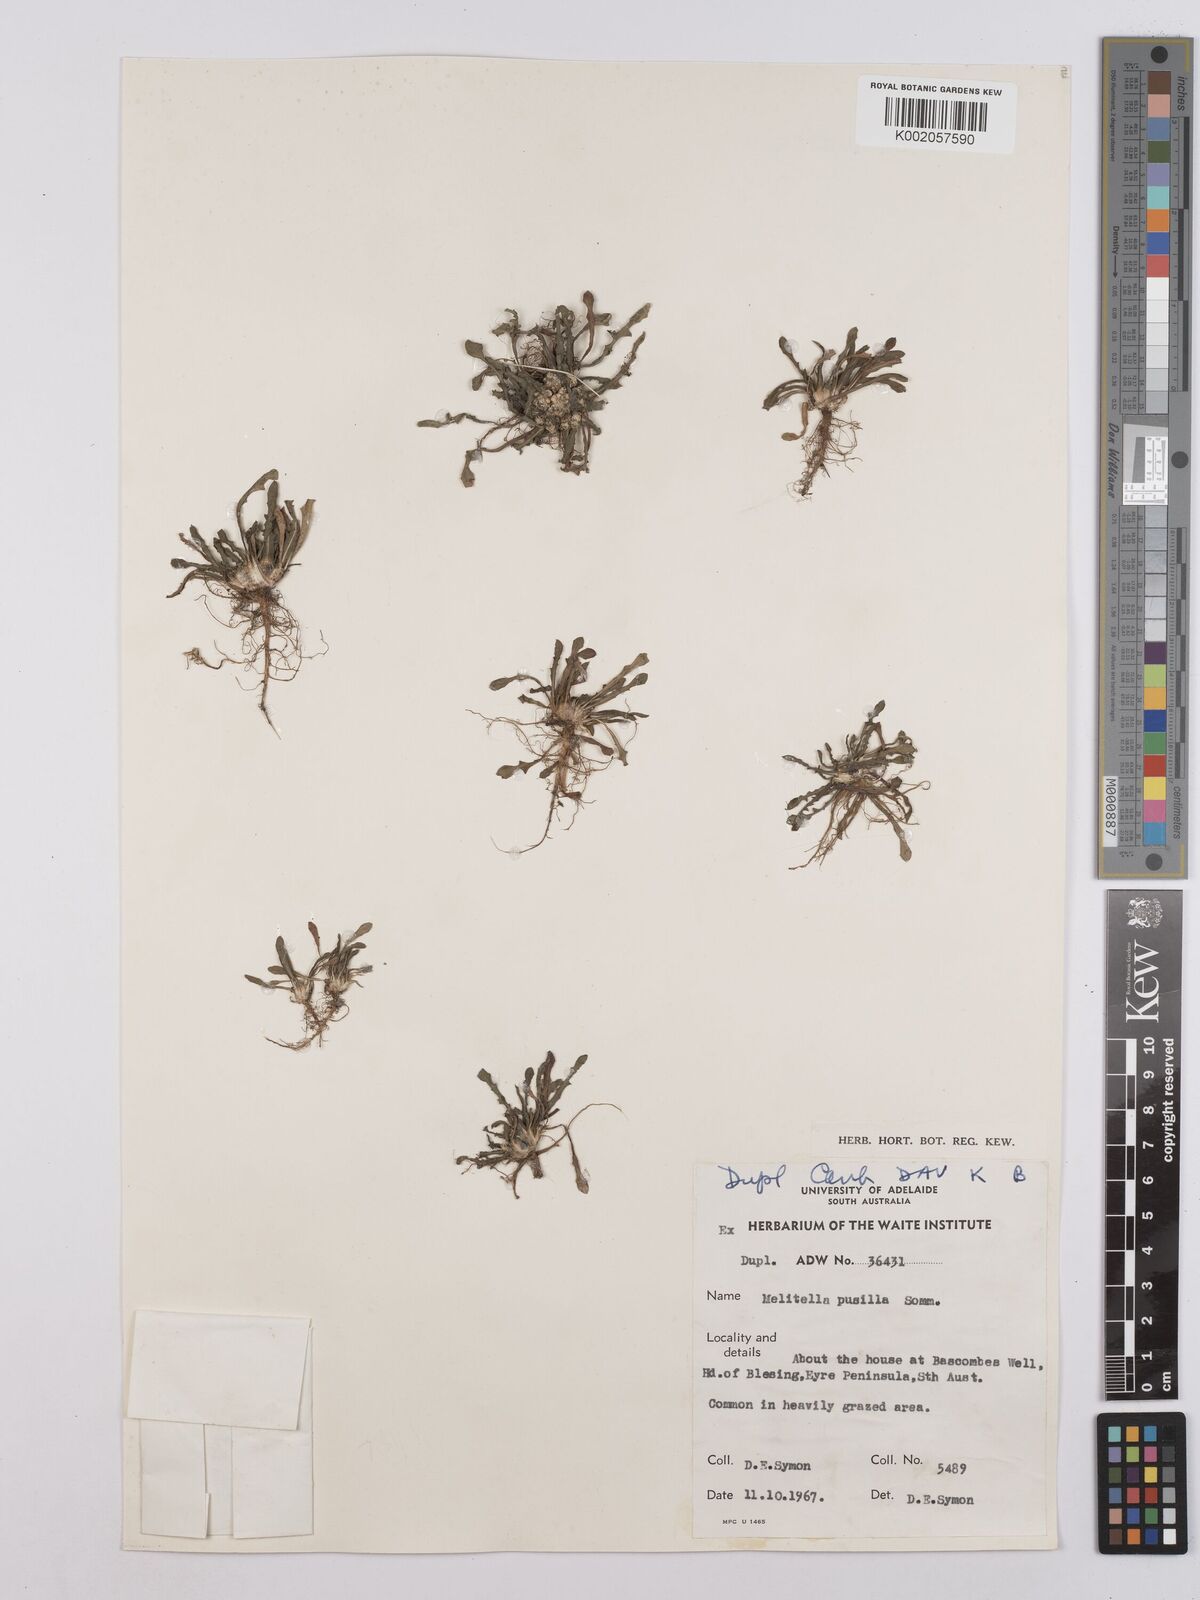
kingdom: Plantae
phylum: Tracheophyta
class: Magnoliopsida
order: Asterales
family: Asteraceae
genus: Crepis
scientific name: Crepis pusilla
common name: Dandelion crepis
